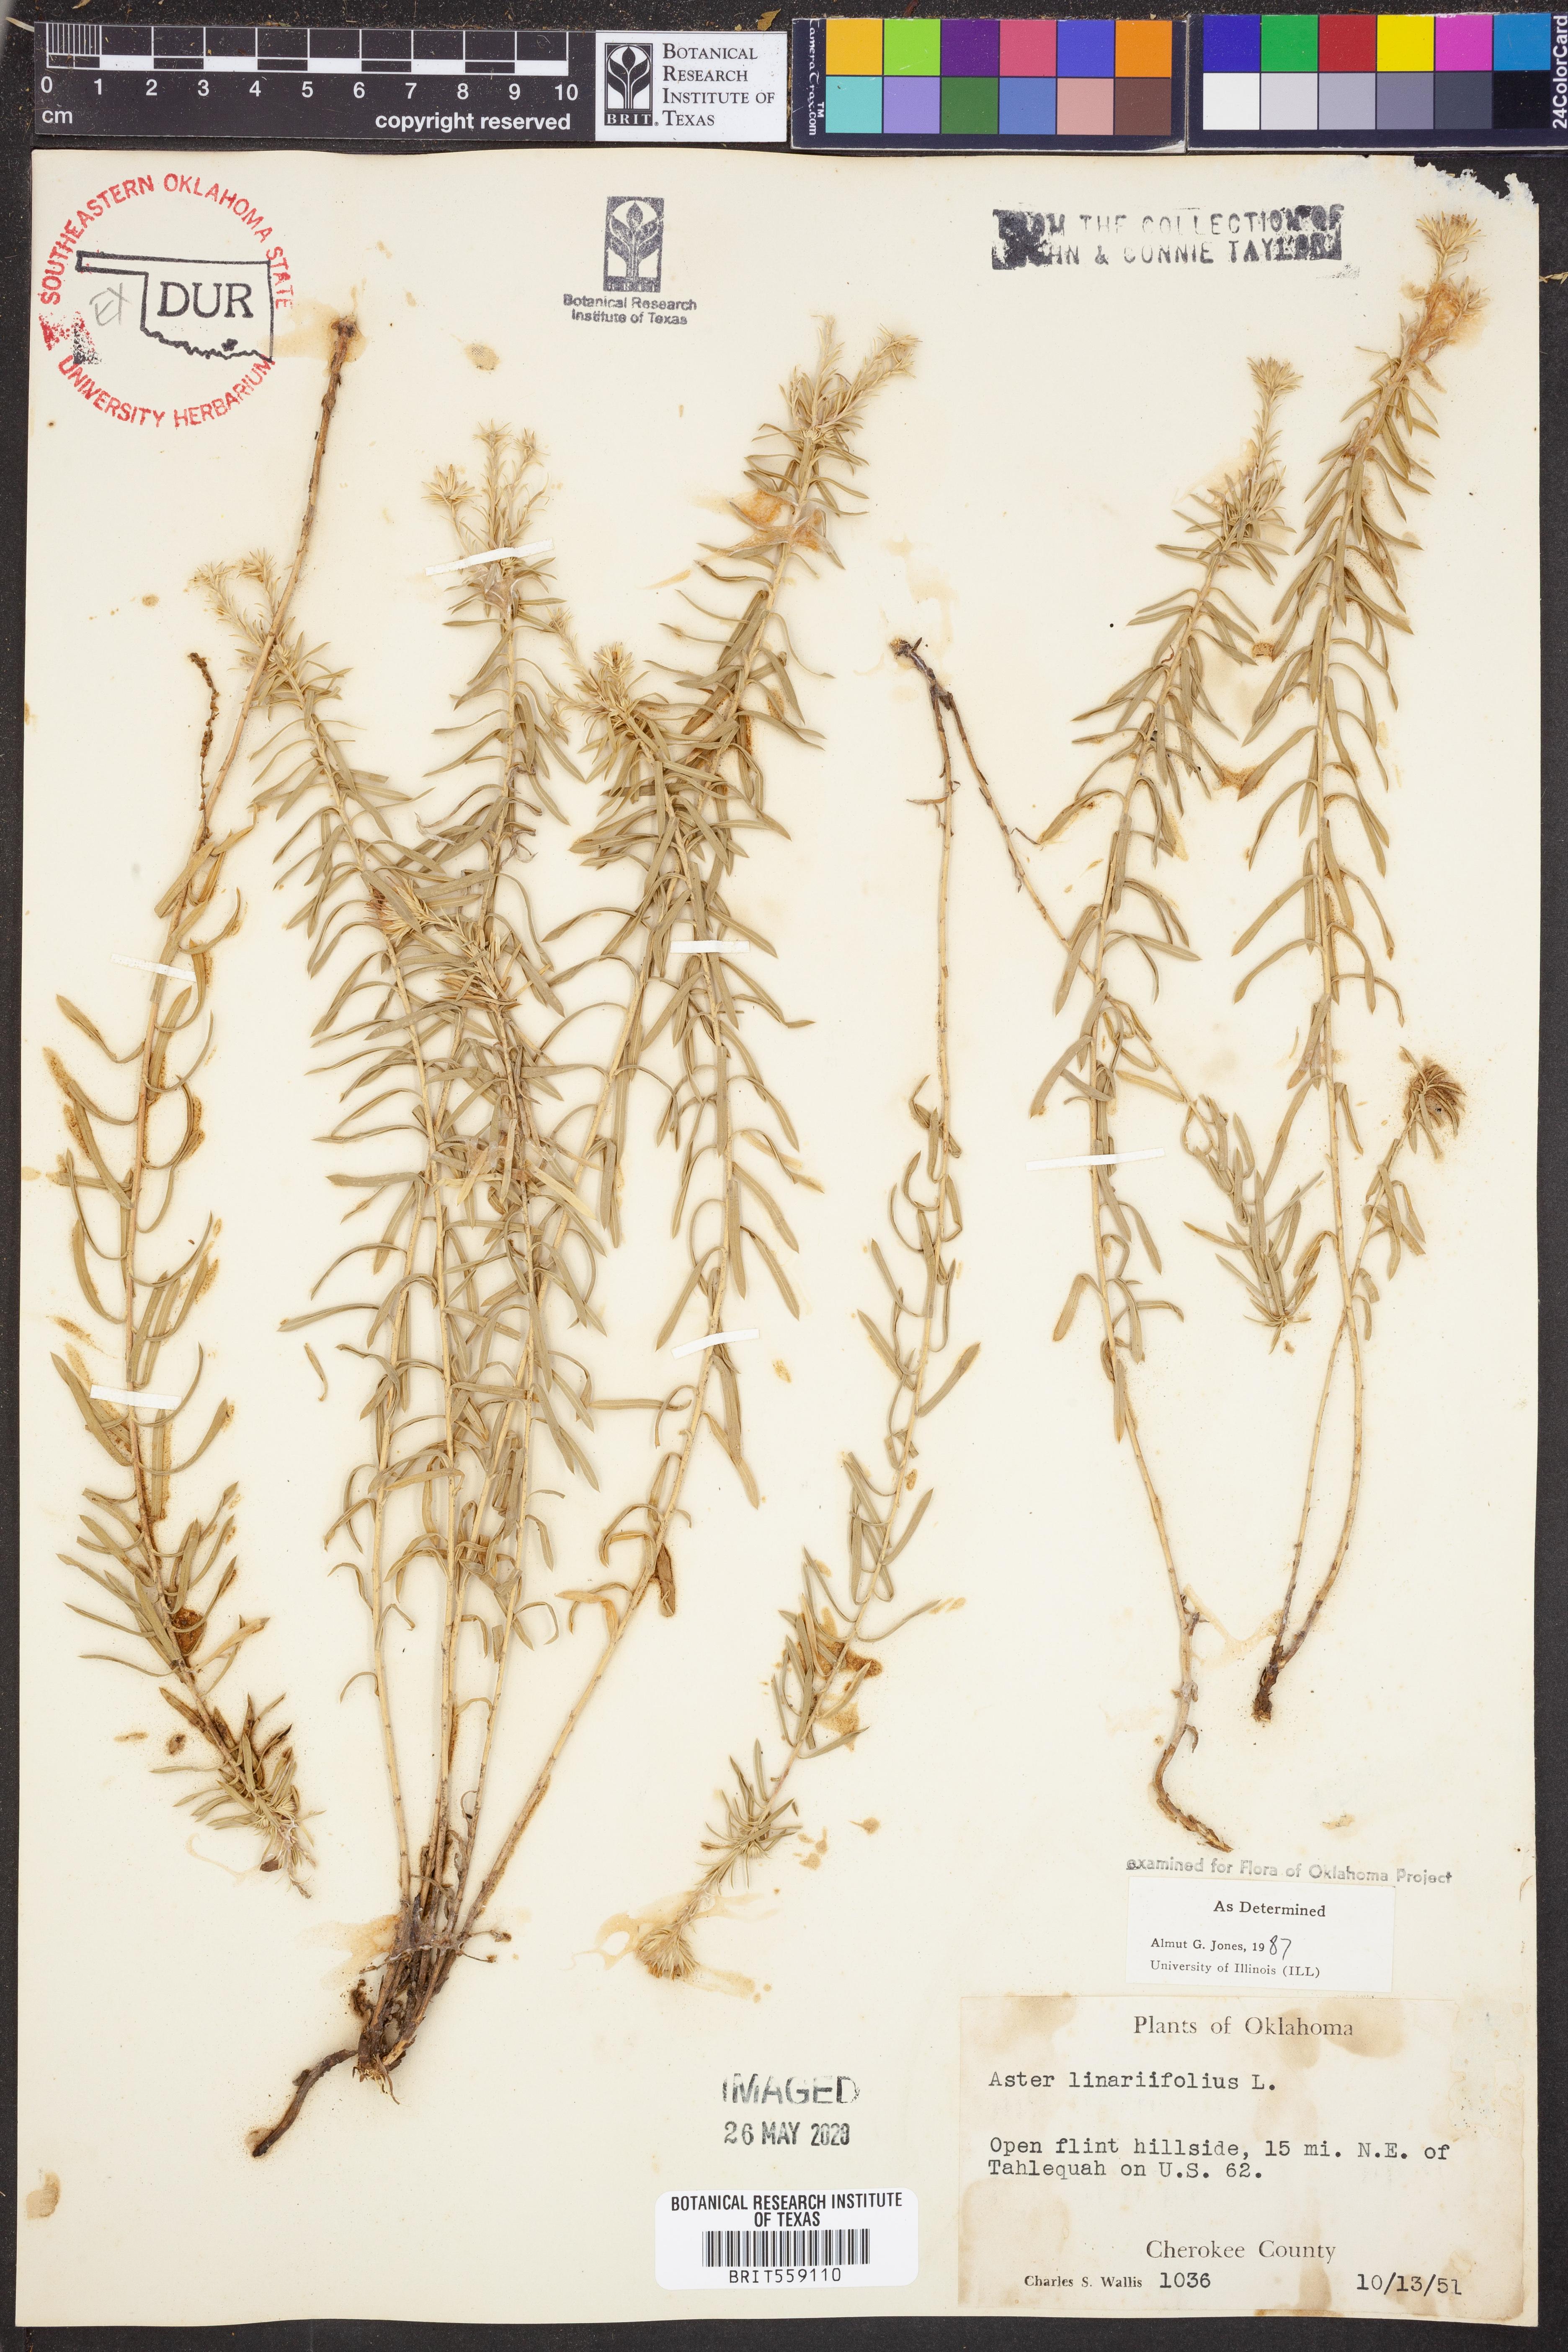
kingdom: Plantae
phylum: Tracheophyta
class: Magnoliopsida
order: Asterales
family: Asteraceae
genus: Ionactis
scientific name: Ionactis linariifolia
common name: Flax-leaf aster
